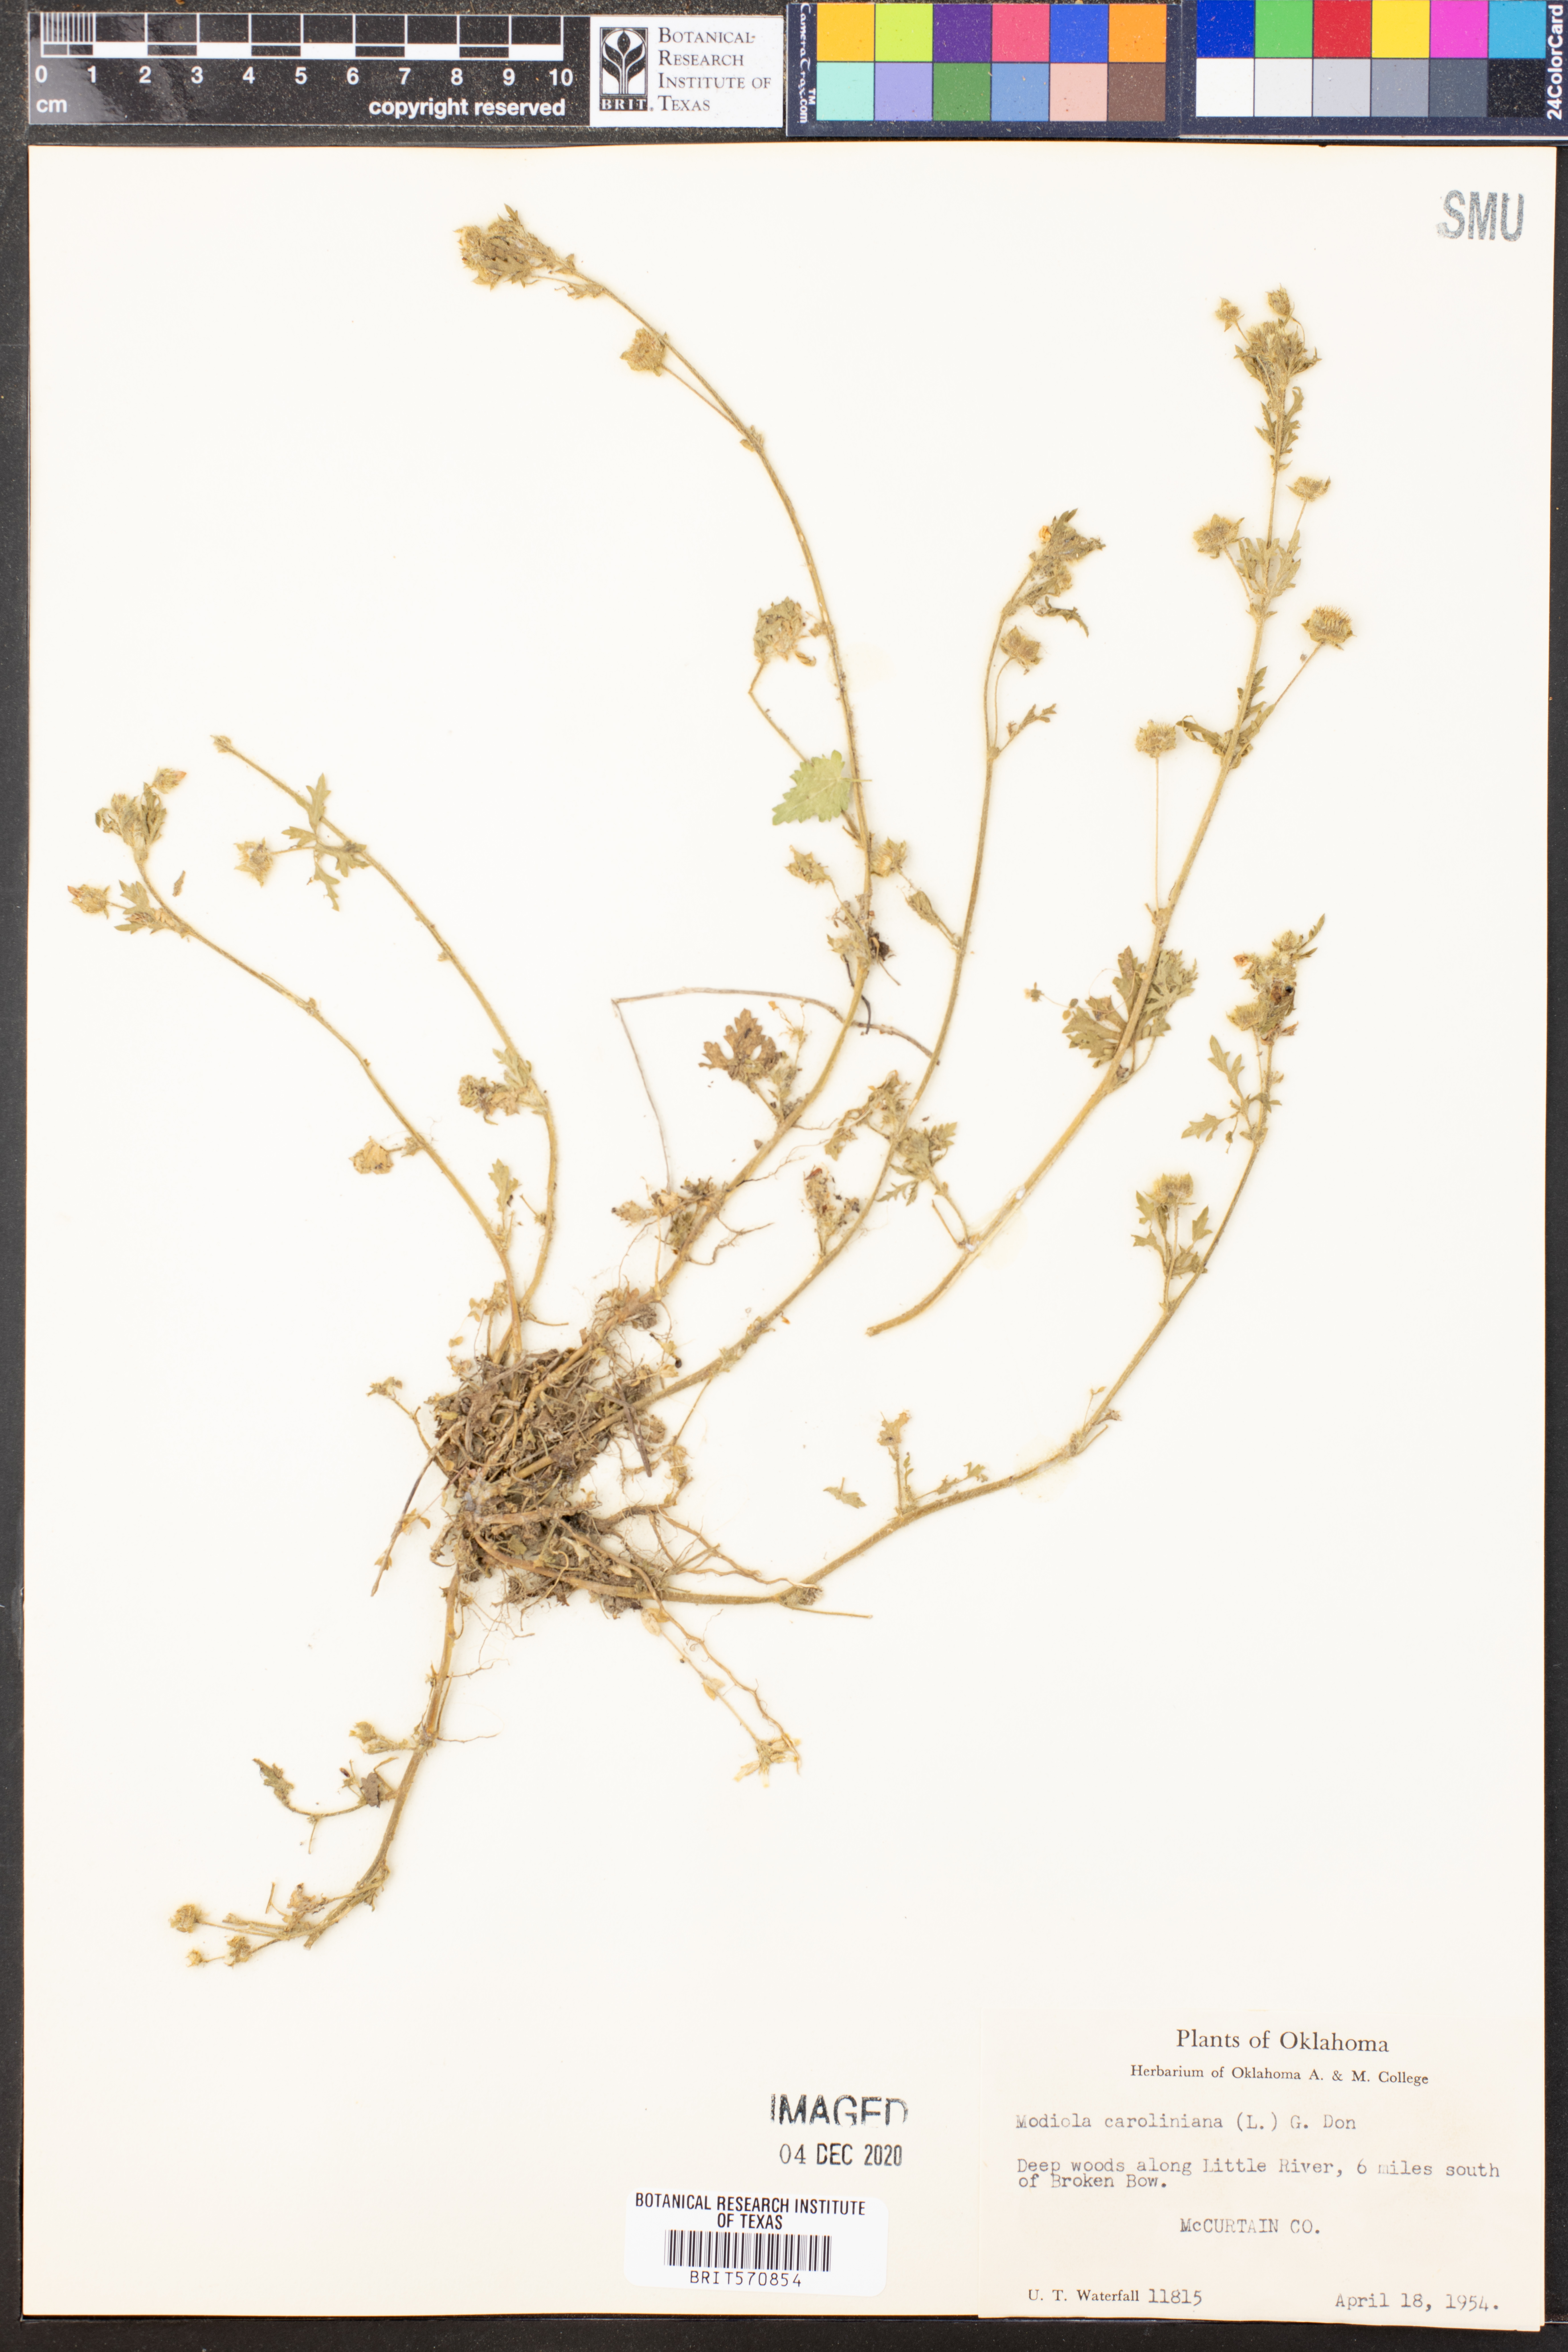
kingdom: Plantae
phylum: Tracheophyta
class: Magnoliopsida
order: Malvales
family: Malvaceae
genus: Modiola
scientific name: Modiola caroliniana
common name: Carolina bristlemallow
